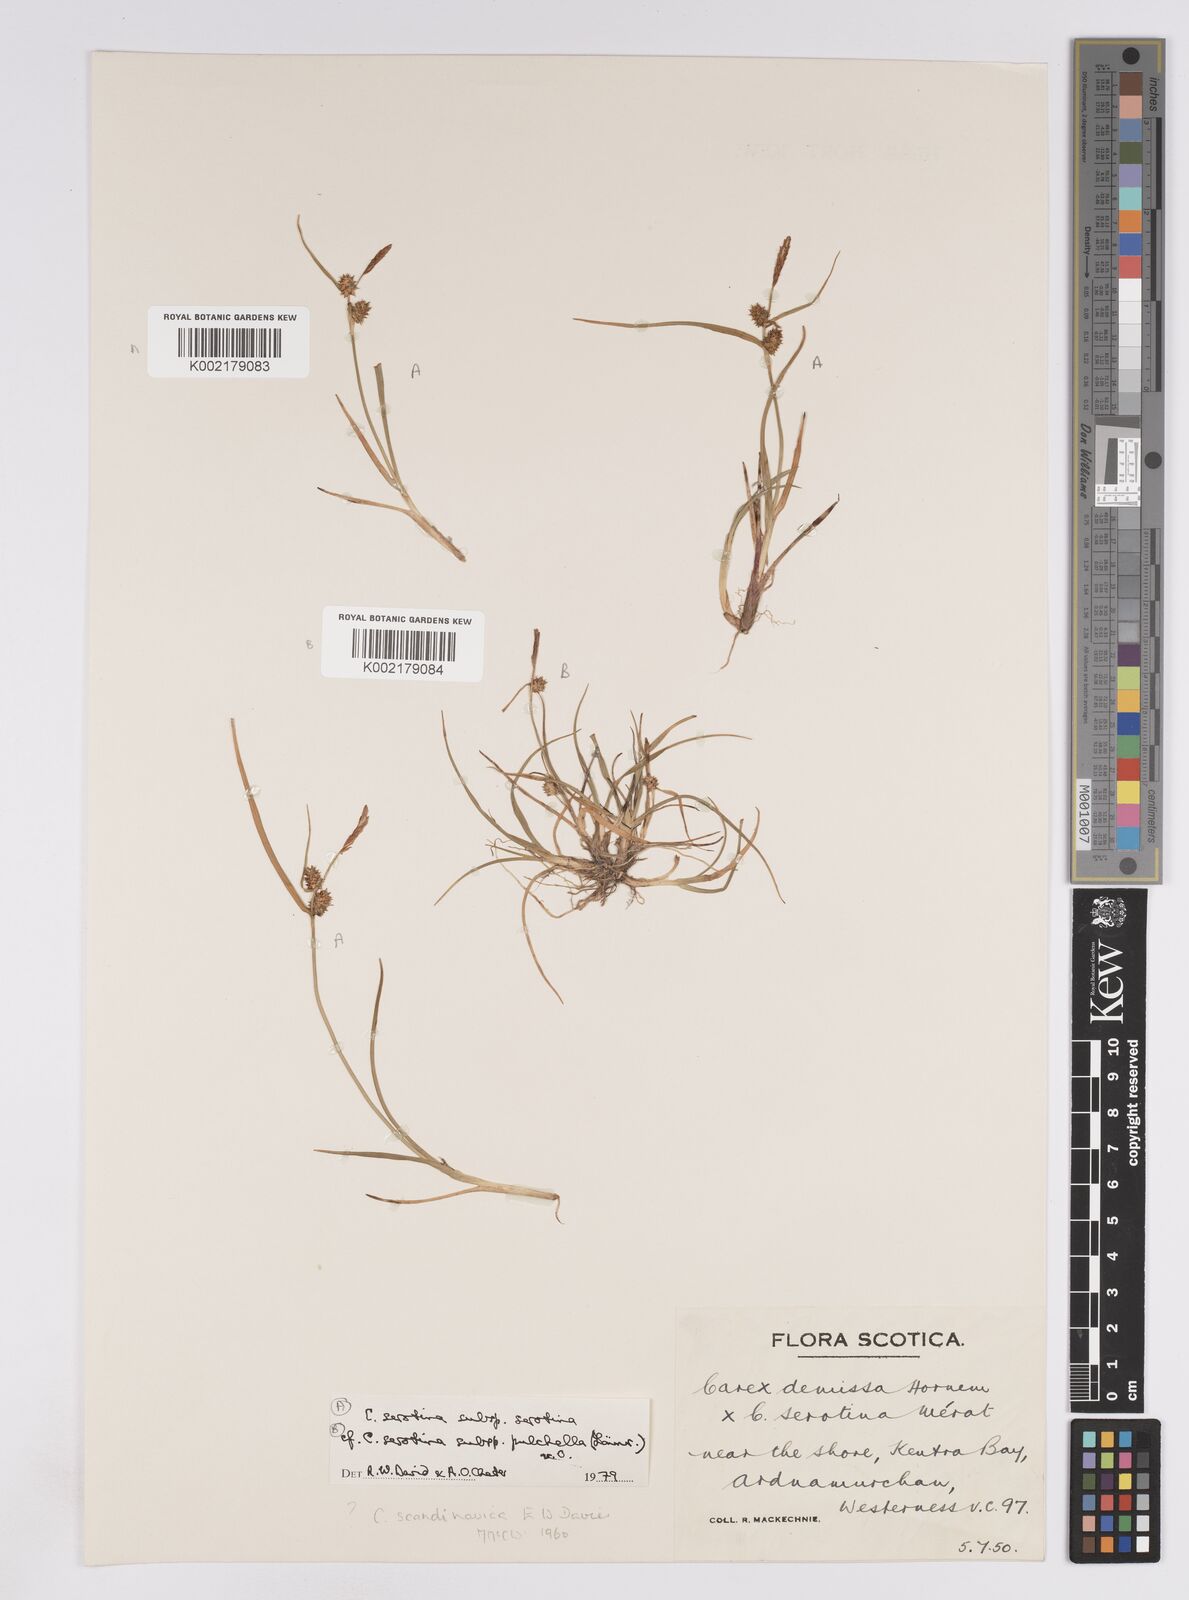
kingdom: Plantae
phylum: Tracheophyta
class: Liliopsida
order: Poales
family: Cyperaceae
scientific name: Cyperaceae
